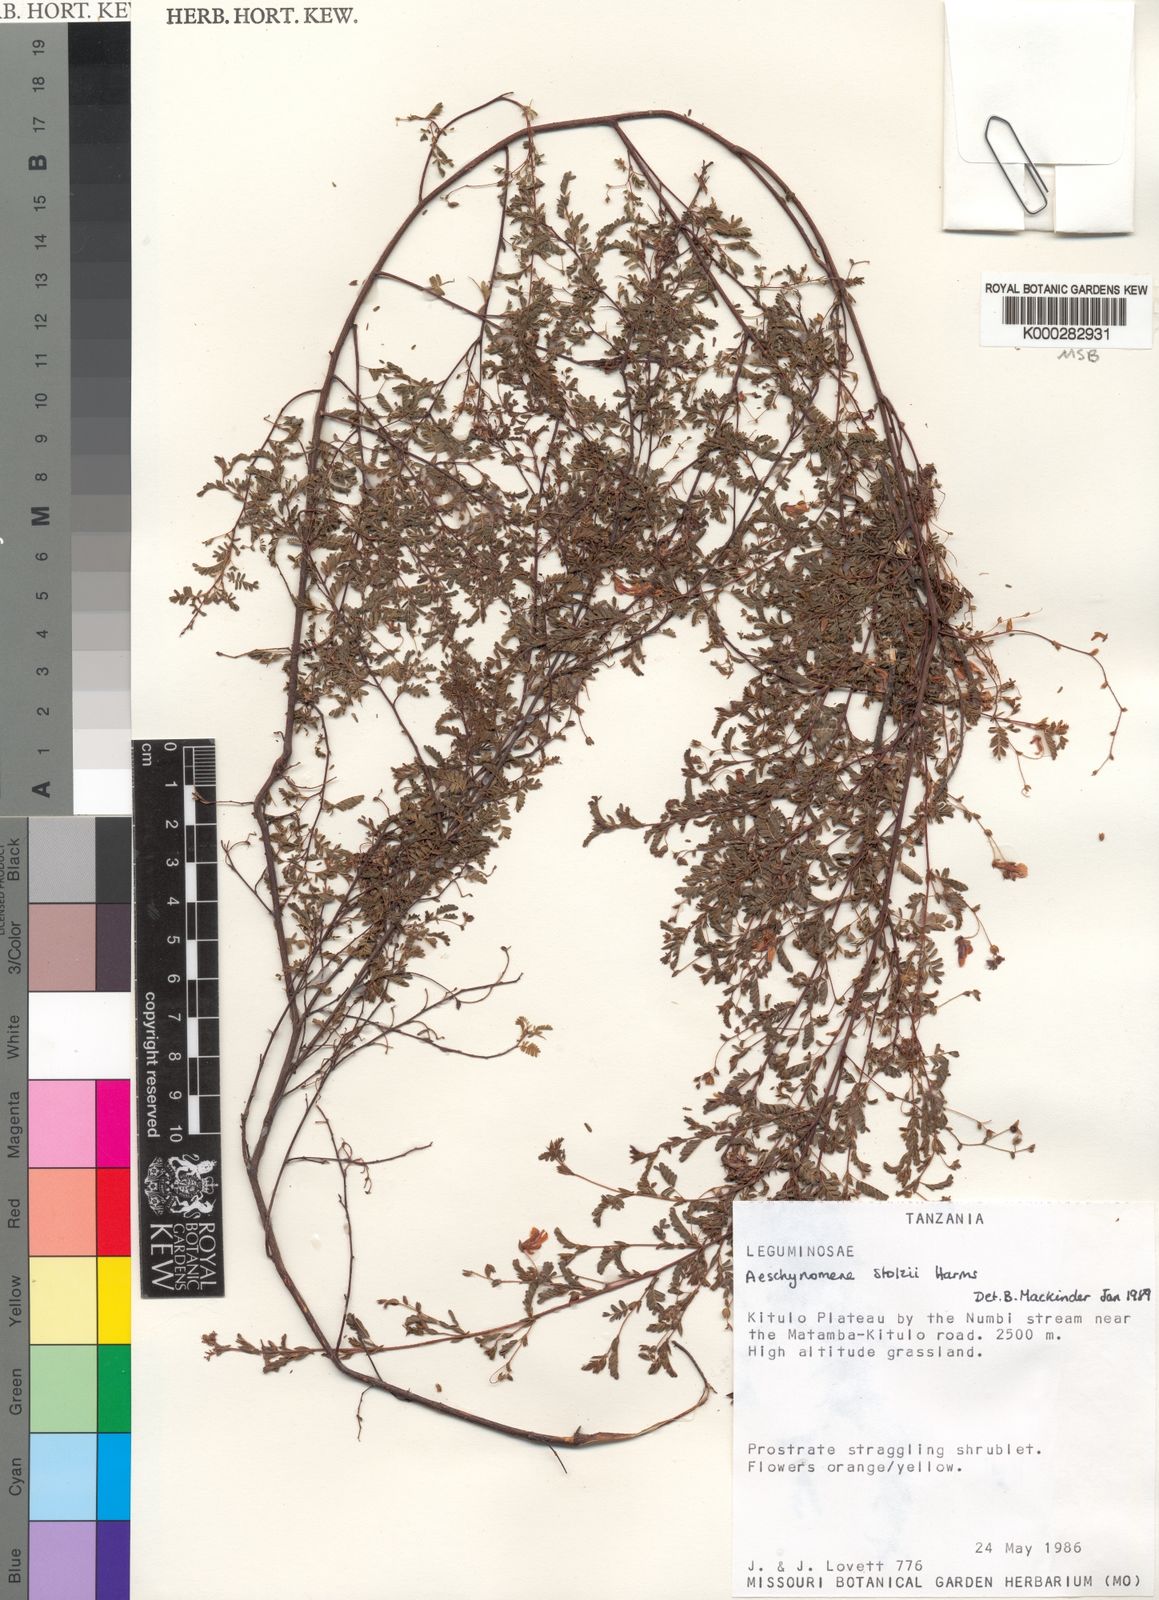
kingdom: Plantae
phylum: Tracheophyta
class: Magnoliopsida
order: Fabales
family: Fabaceae
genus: Aeschynomene
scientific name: Aeschynomene stolzii
